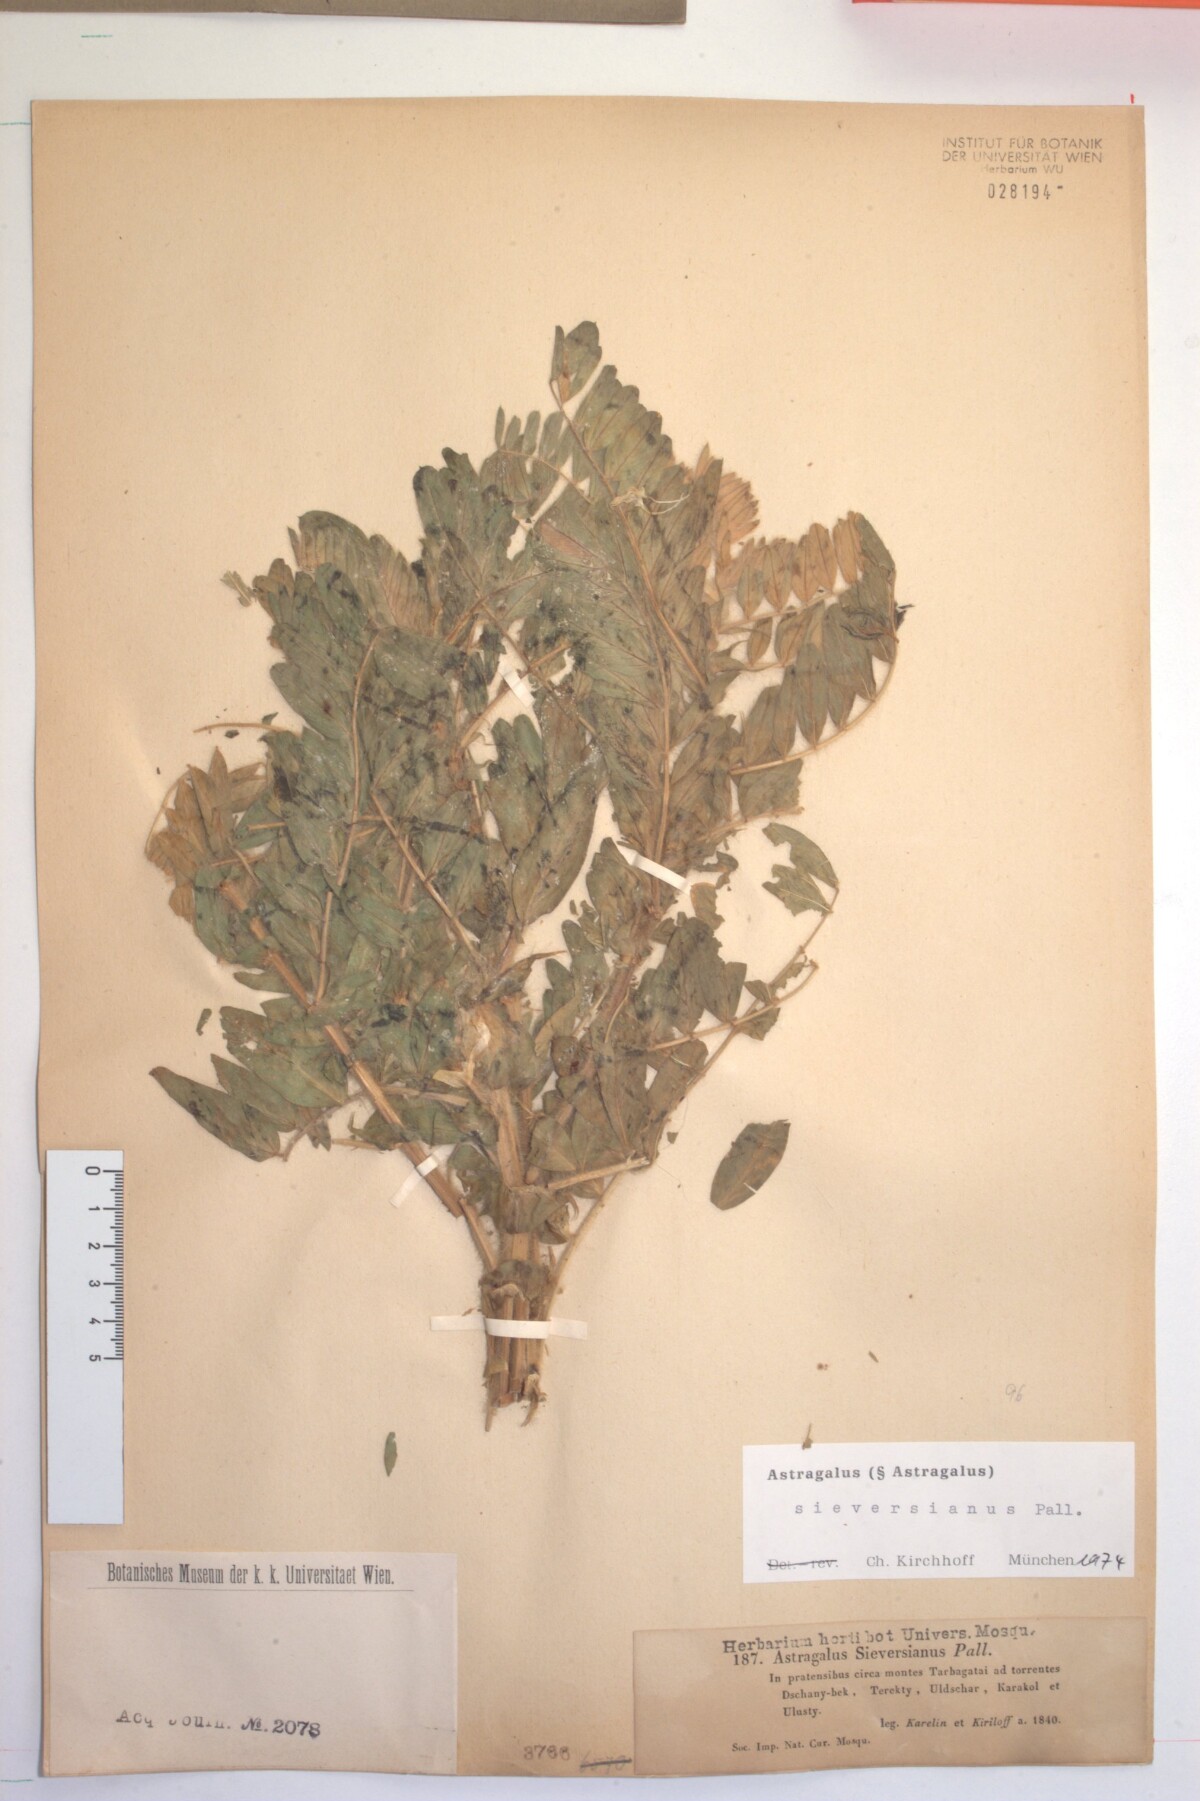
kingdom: Plantae
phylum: Tracheophyta
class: Magnoliopsida
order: Fabales
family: Fabaceae
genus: Astragalus
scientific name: Astragalus sieversianus
